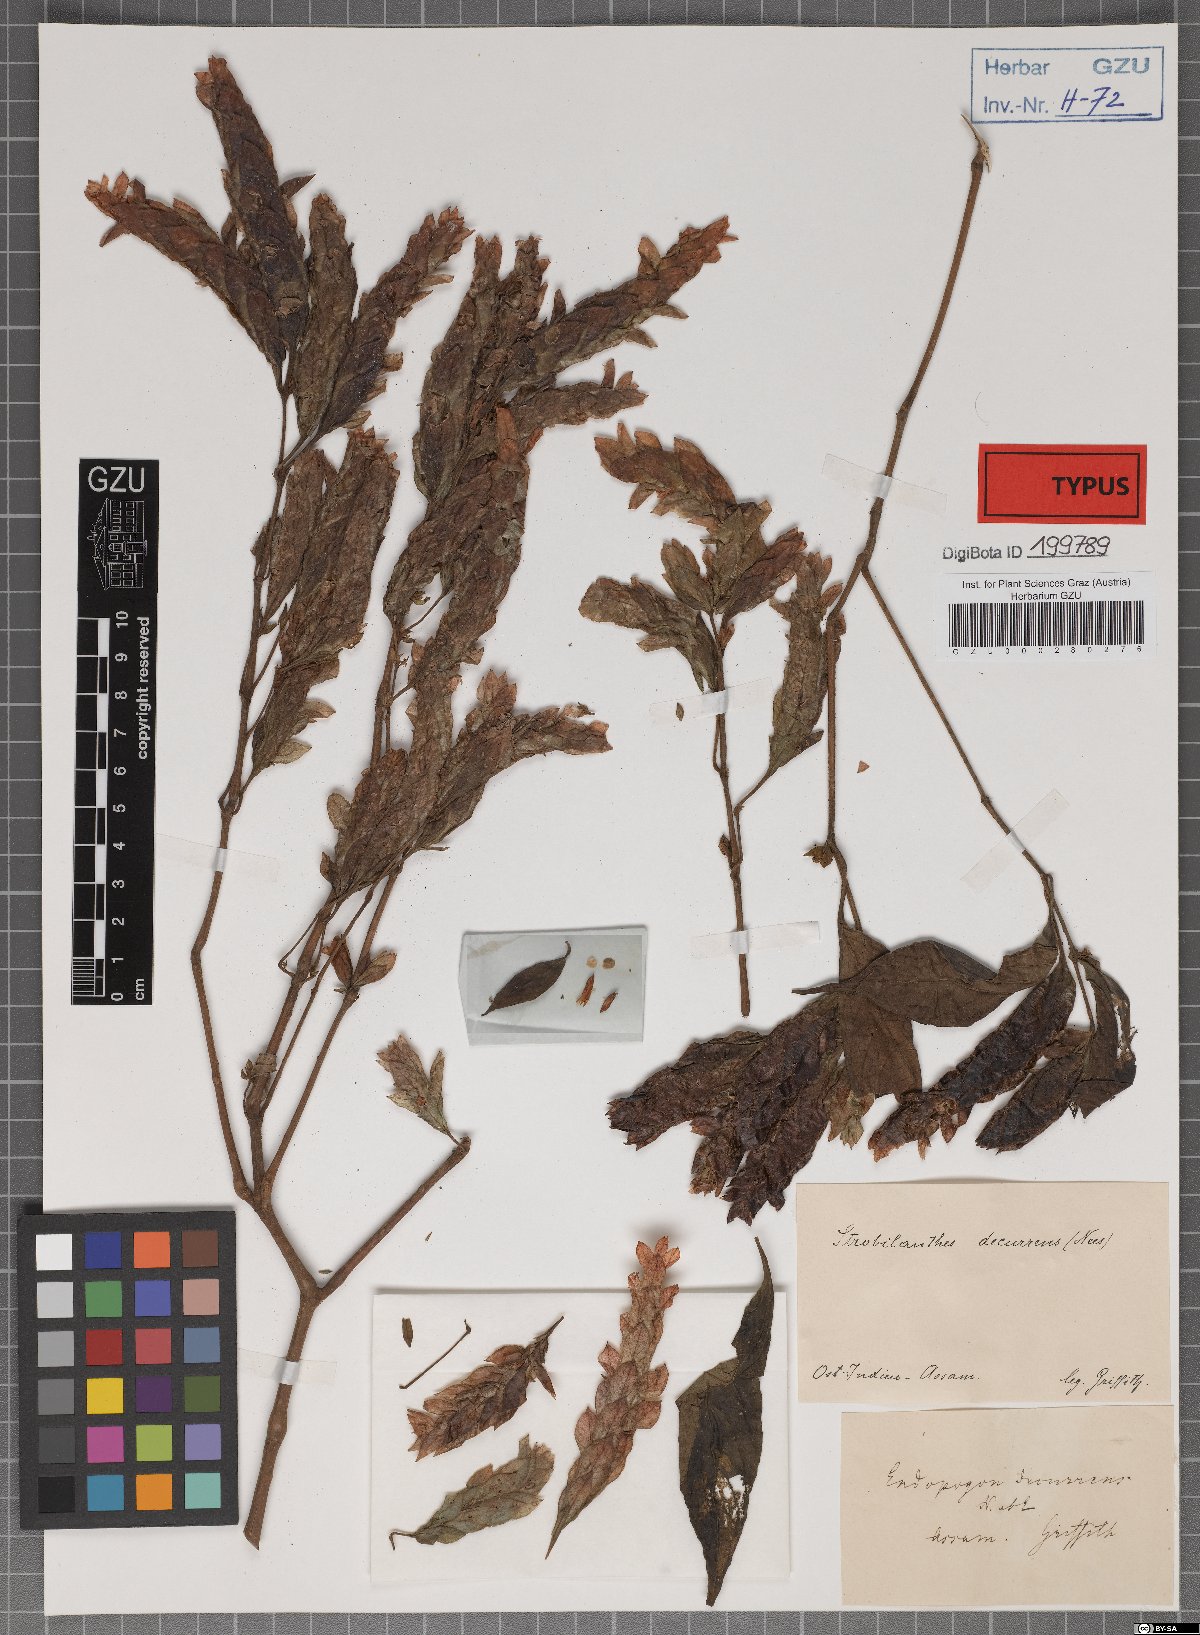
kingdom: Plantae
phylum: Tracheophyta
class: Magnoliopsida
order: Lamiales
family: Acanthaceae
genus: Strobilanthes
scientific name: Strobilanthes adnata
